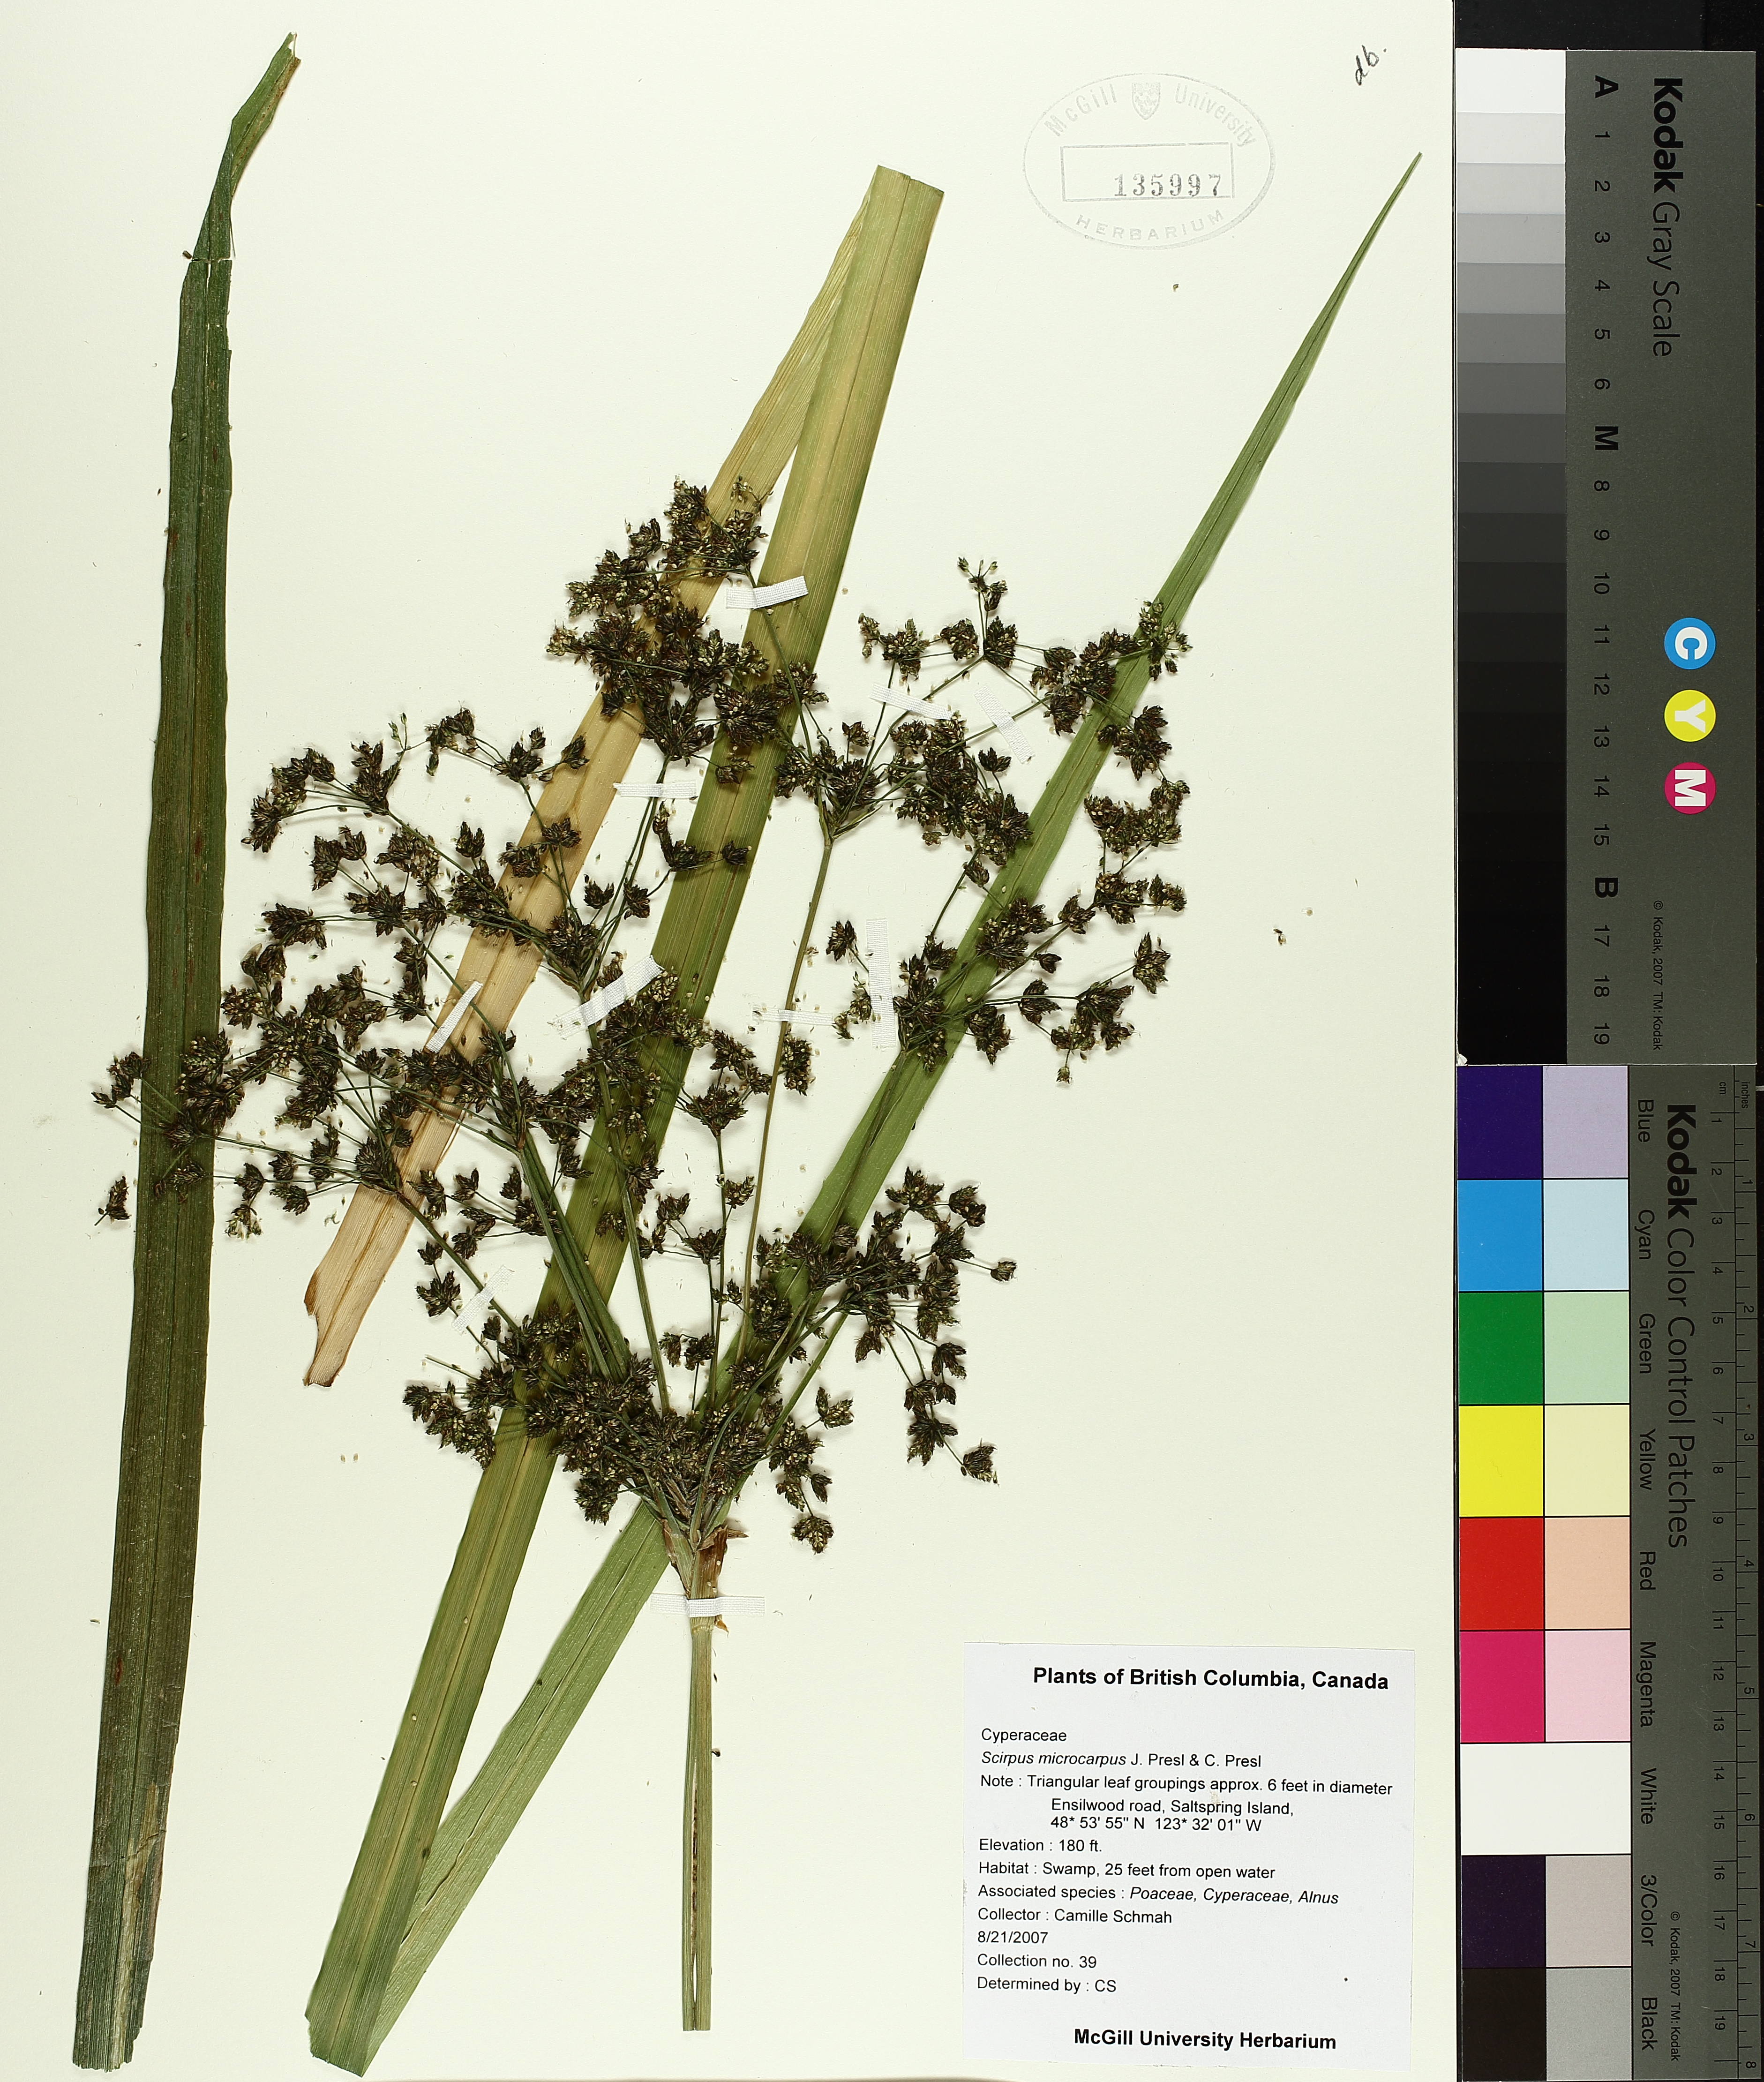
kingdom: Plantae
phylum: Tracheophyta
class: Liliopsida
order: Poales
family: Cyperaceae
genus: Scirpus
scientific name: Scirpus microcarpus
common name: Panicled bulrush
